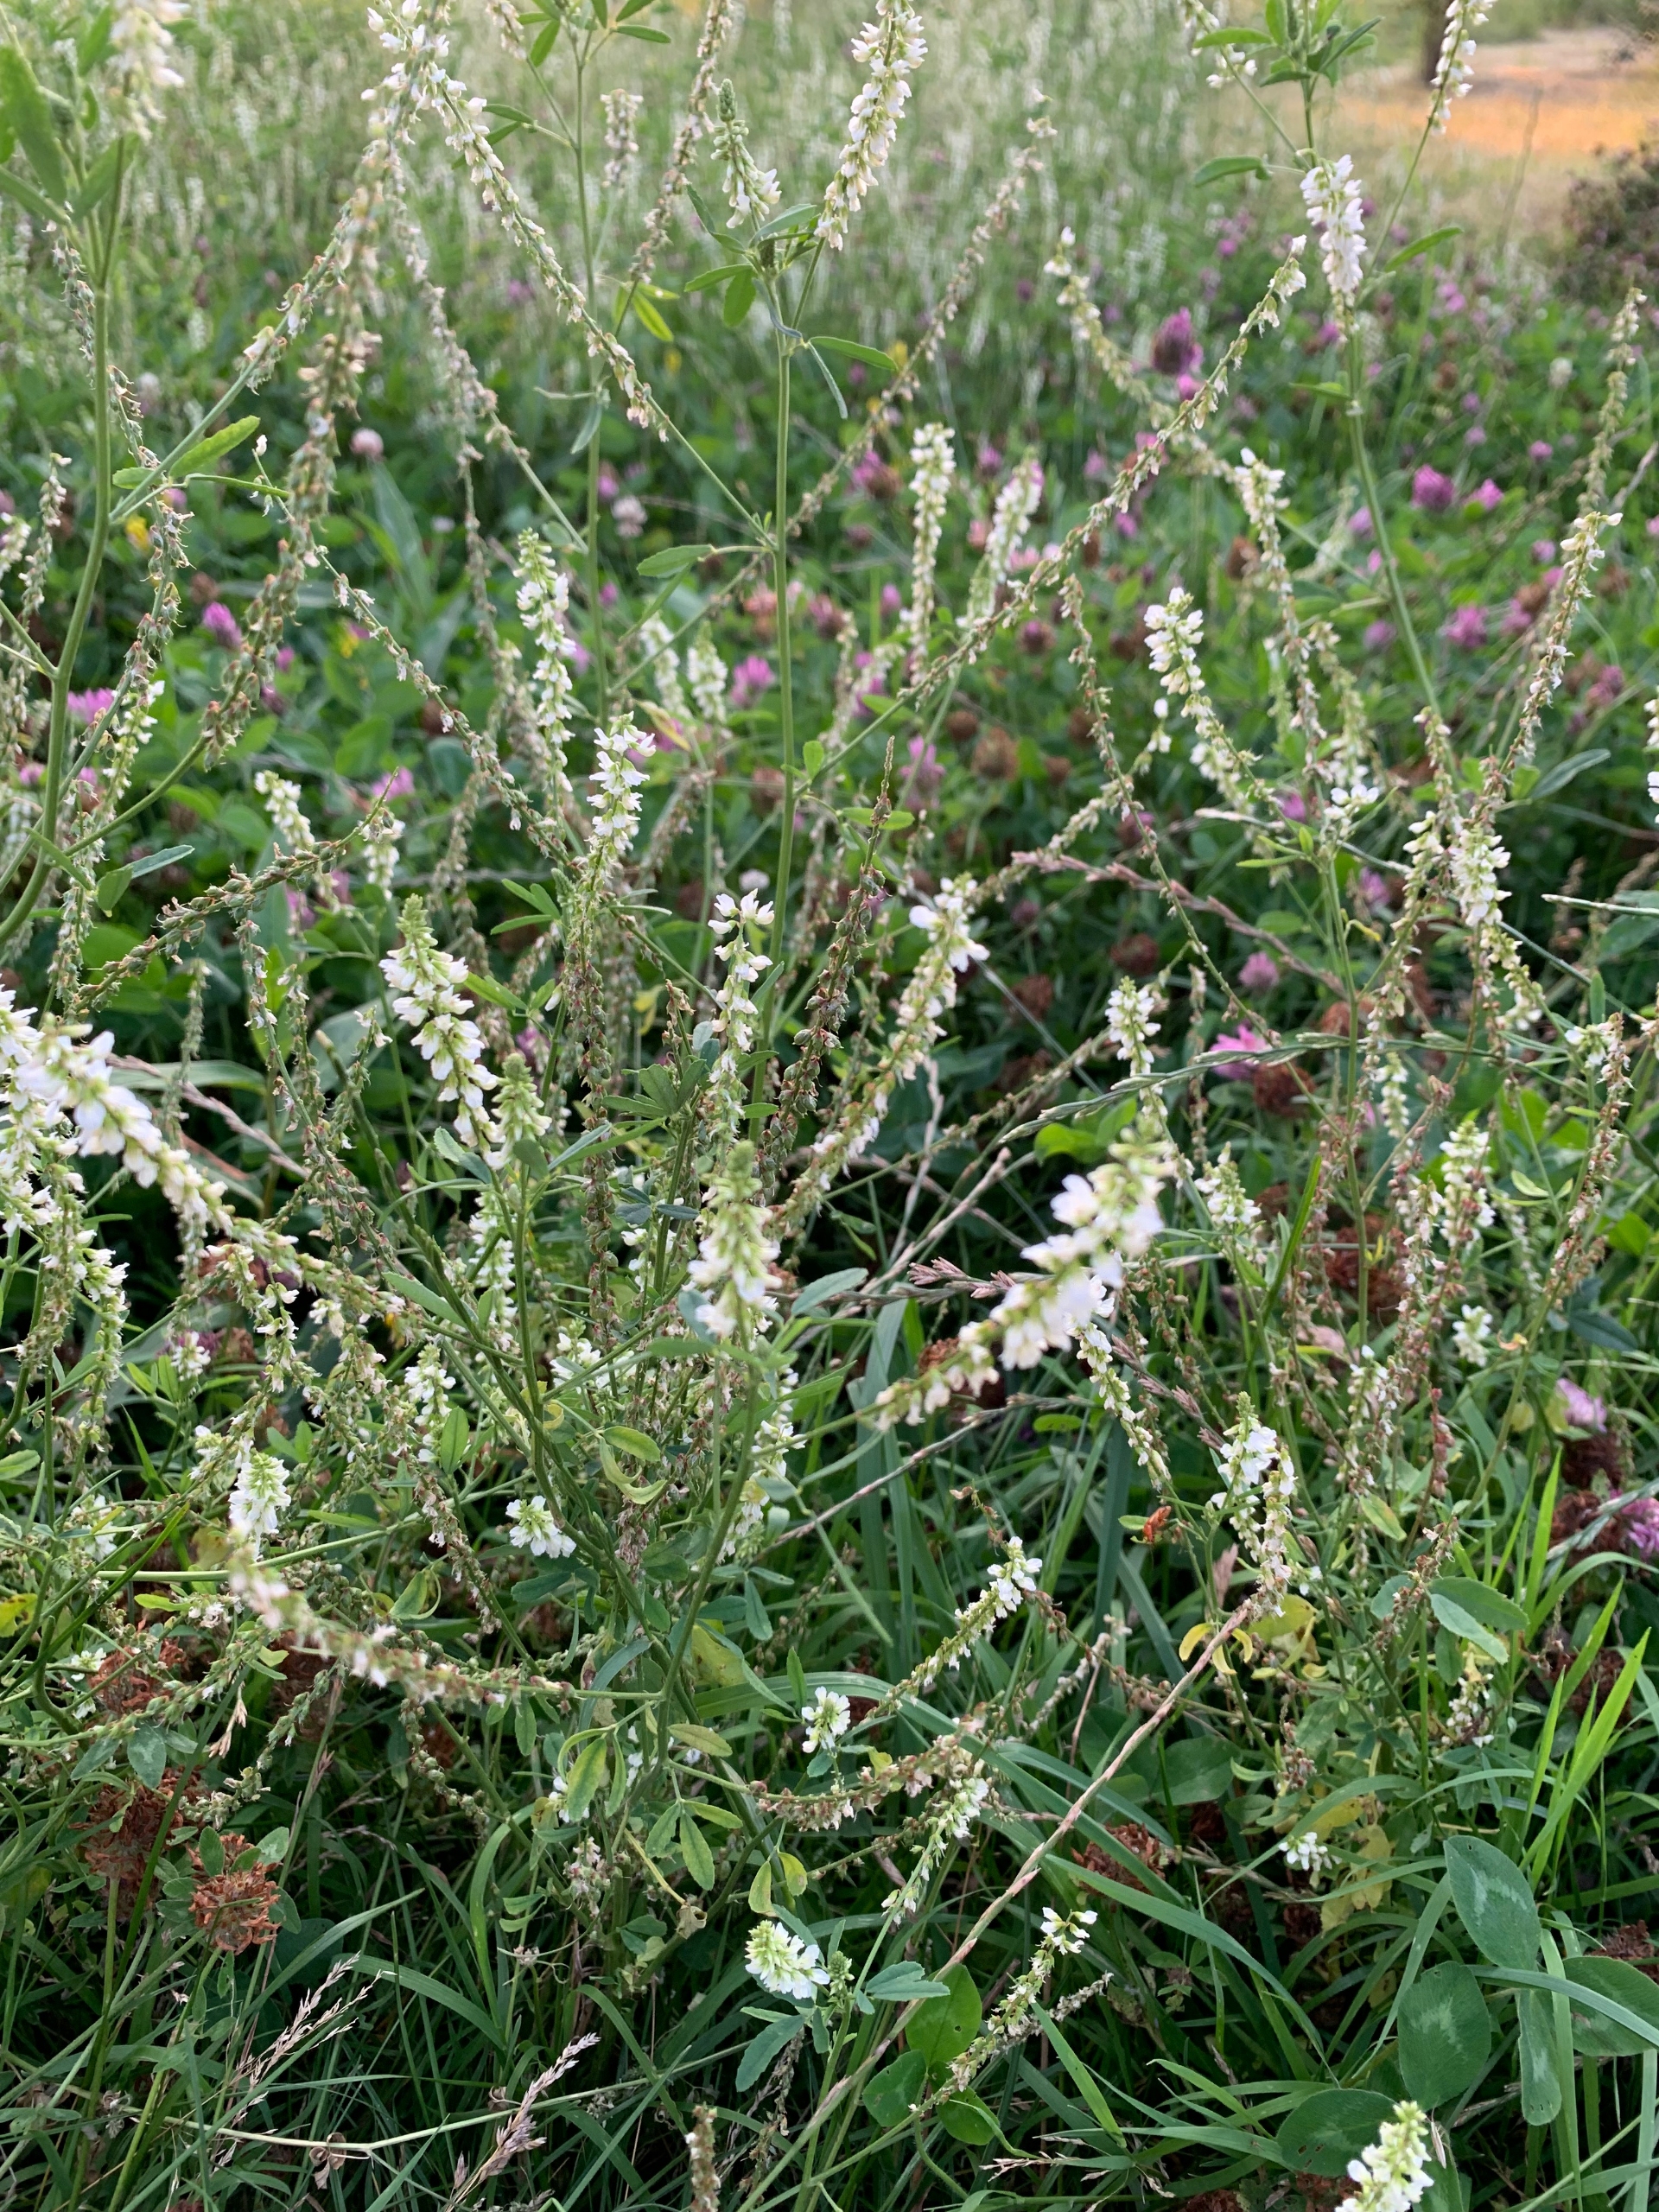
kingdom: Plantae
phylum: Tracheophyta
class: Magnoliopsida
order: Fabales
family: Fabaceae
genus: Melilotus
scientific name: Melilotus albus
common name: Hvid stenkløver
